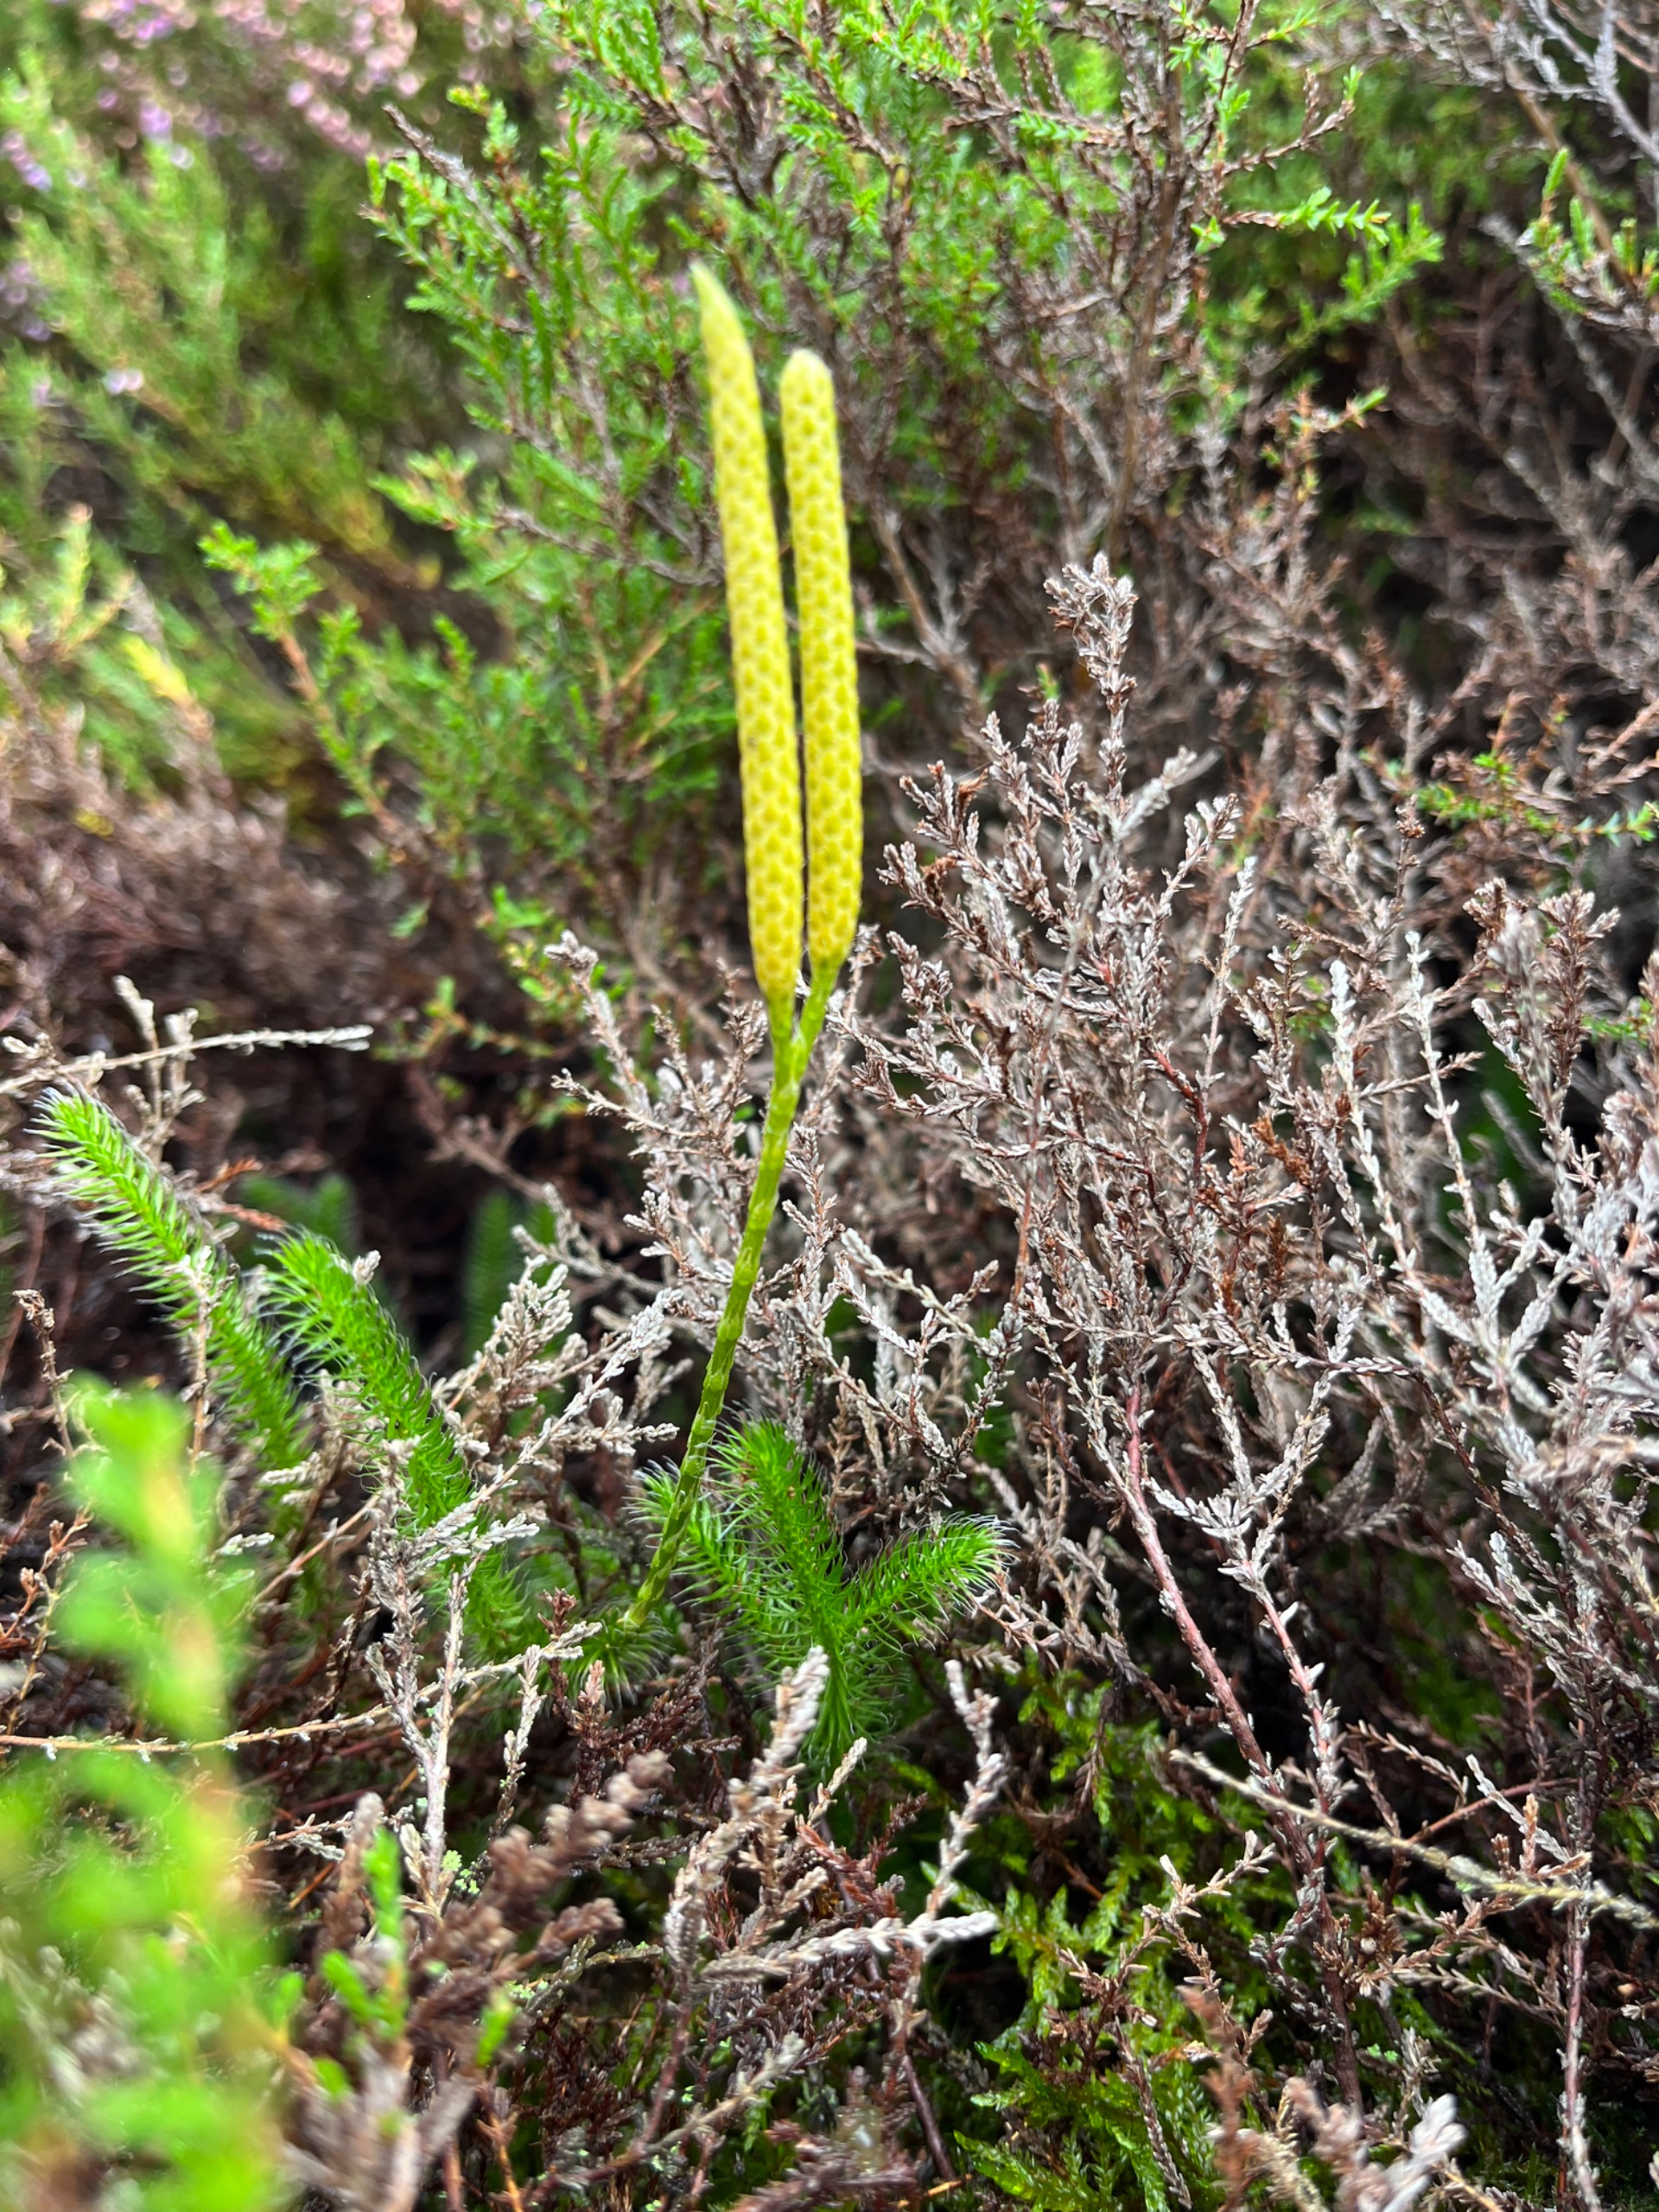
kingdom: Plantae
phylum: Tracheophyta
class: Lycopodiopsida
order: Lycopodiales
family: Lycopodiaceae
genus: Lycopodium
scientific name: Lycopodium clavatum
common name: Almindelig ulvefod
